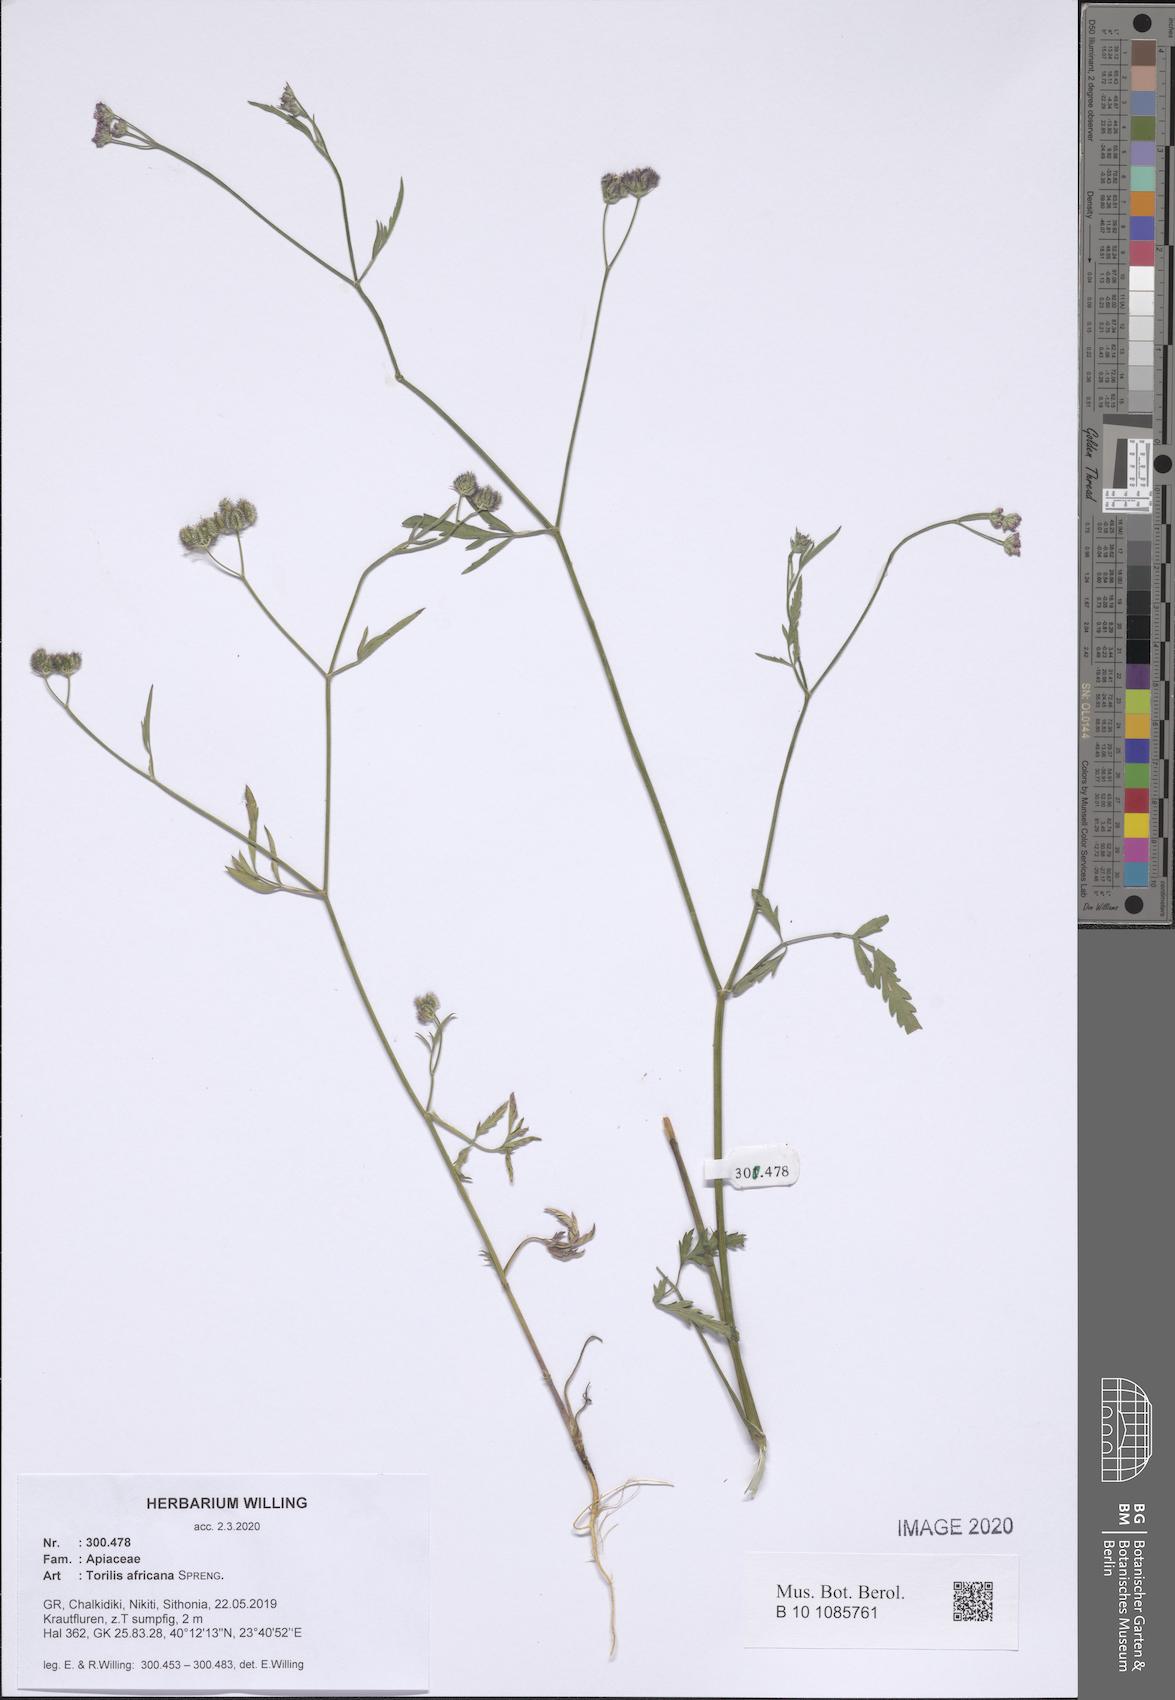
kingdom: Plantae
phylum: Tracheophyta
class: Magnoliopsida
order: Apiales
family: Apiaceae
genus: Torilis
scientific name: Torilis africana
